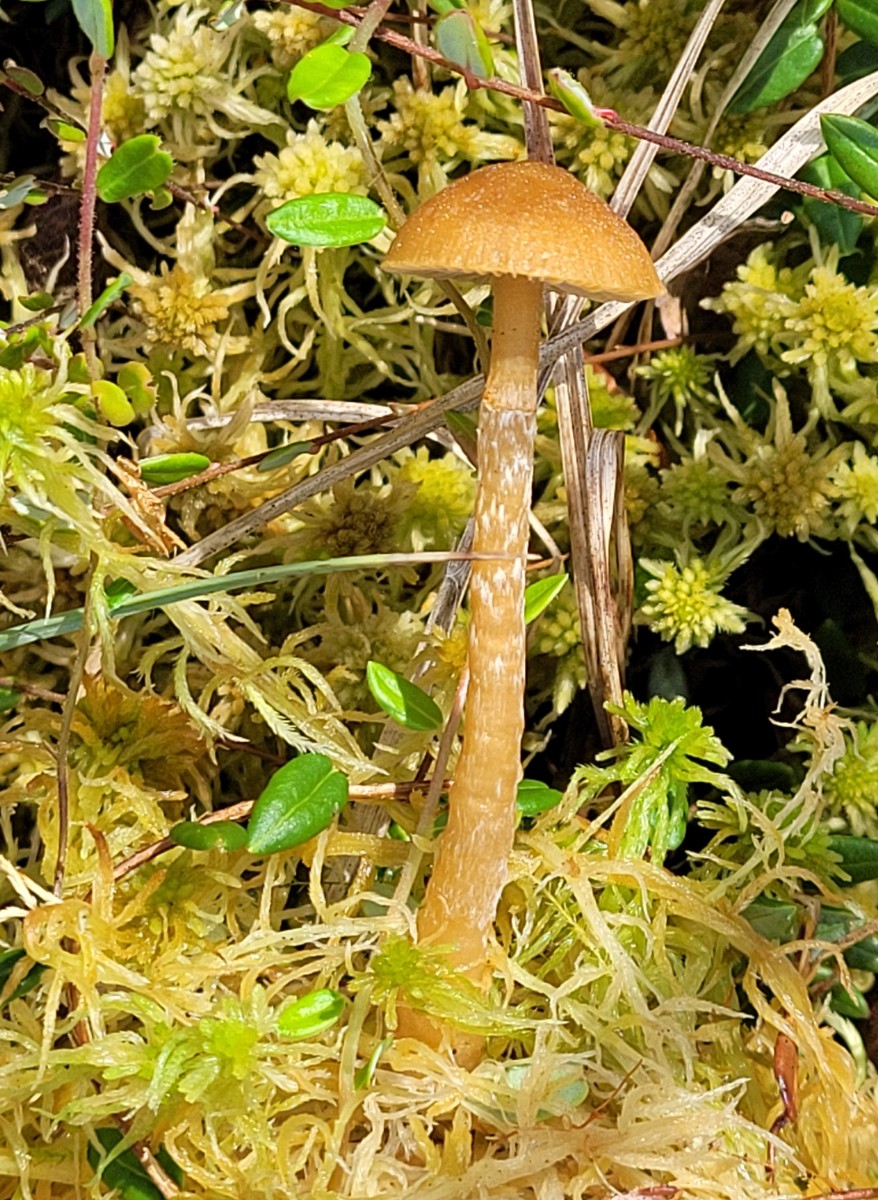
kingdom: Fungi
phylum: Basidiomycota
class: Agaricomycetes
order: Agaricales
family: Hymenogastraceae
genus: Galerina
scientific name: Galerina paludosa
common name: mose-hjelmhat
